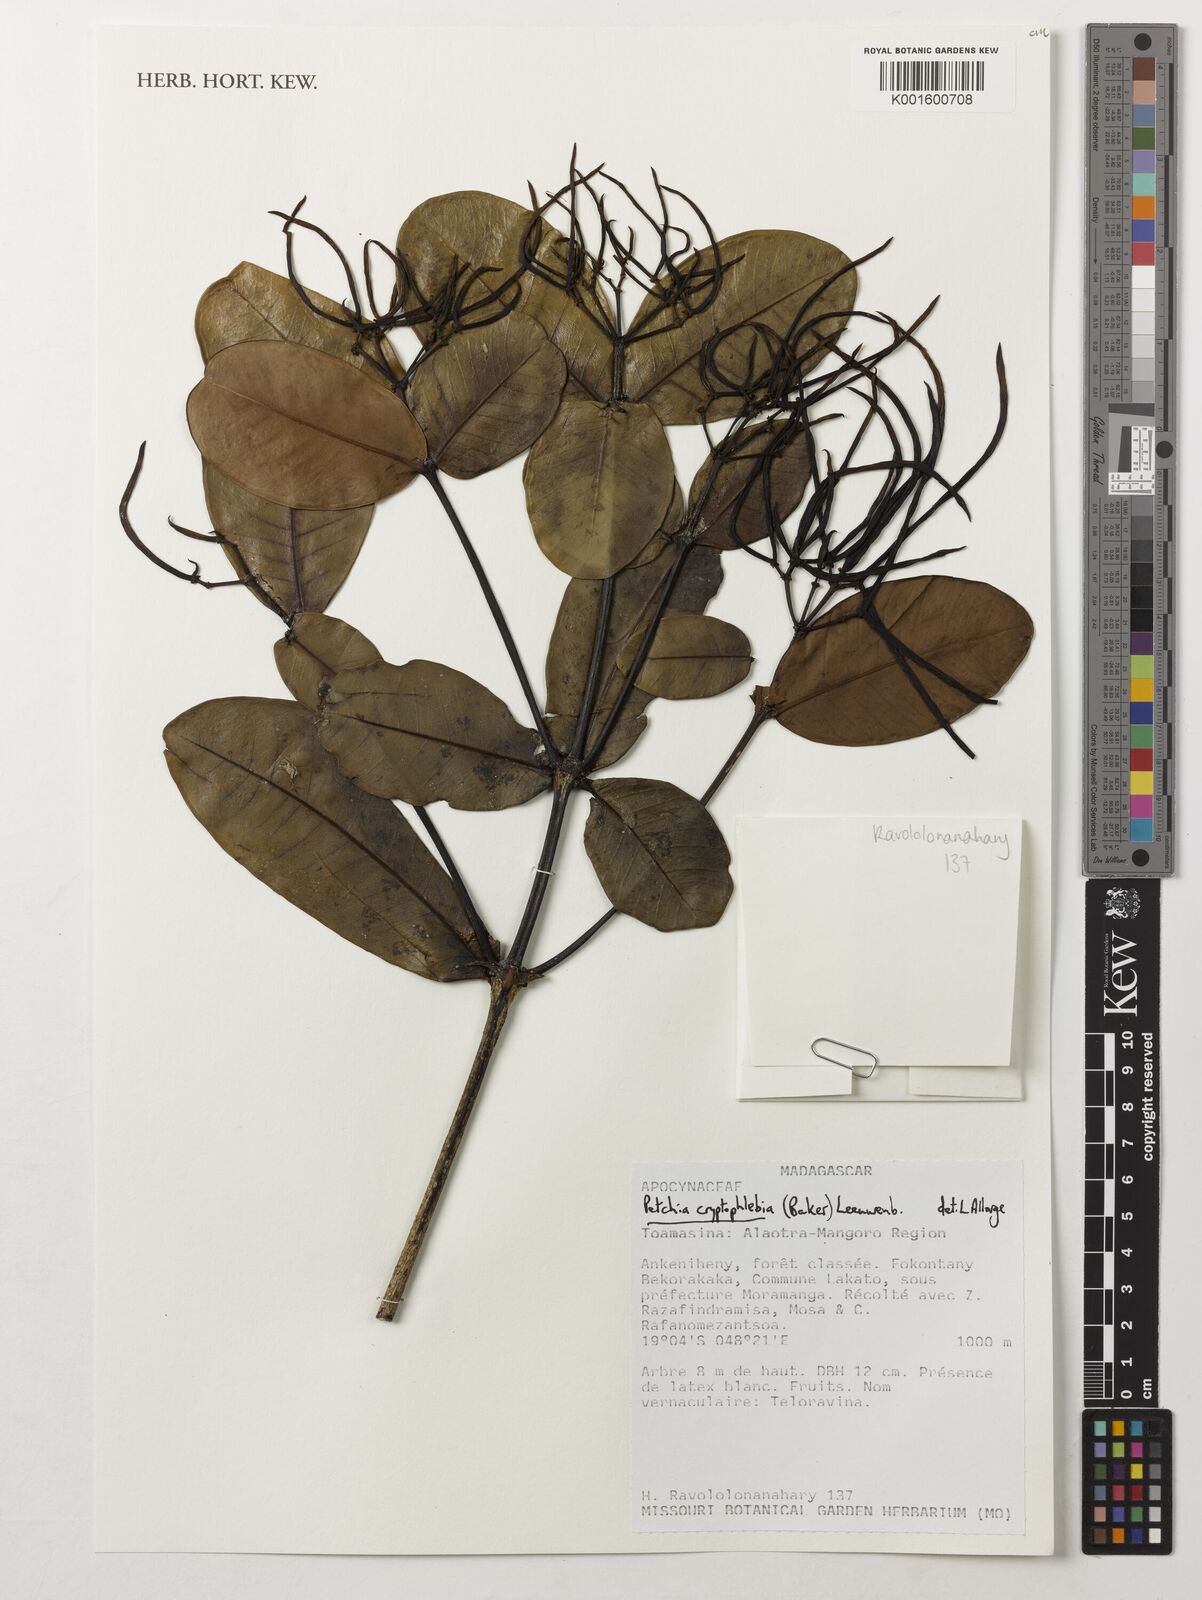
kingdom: Plantae
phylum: Tracheophyta
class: Magnoliopsida
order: Gentianales
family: Apocynaceae
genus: Petchia
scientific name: Petchia cryptophlebia
